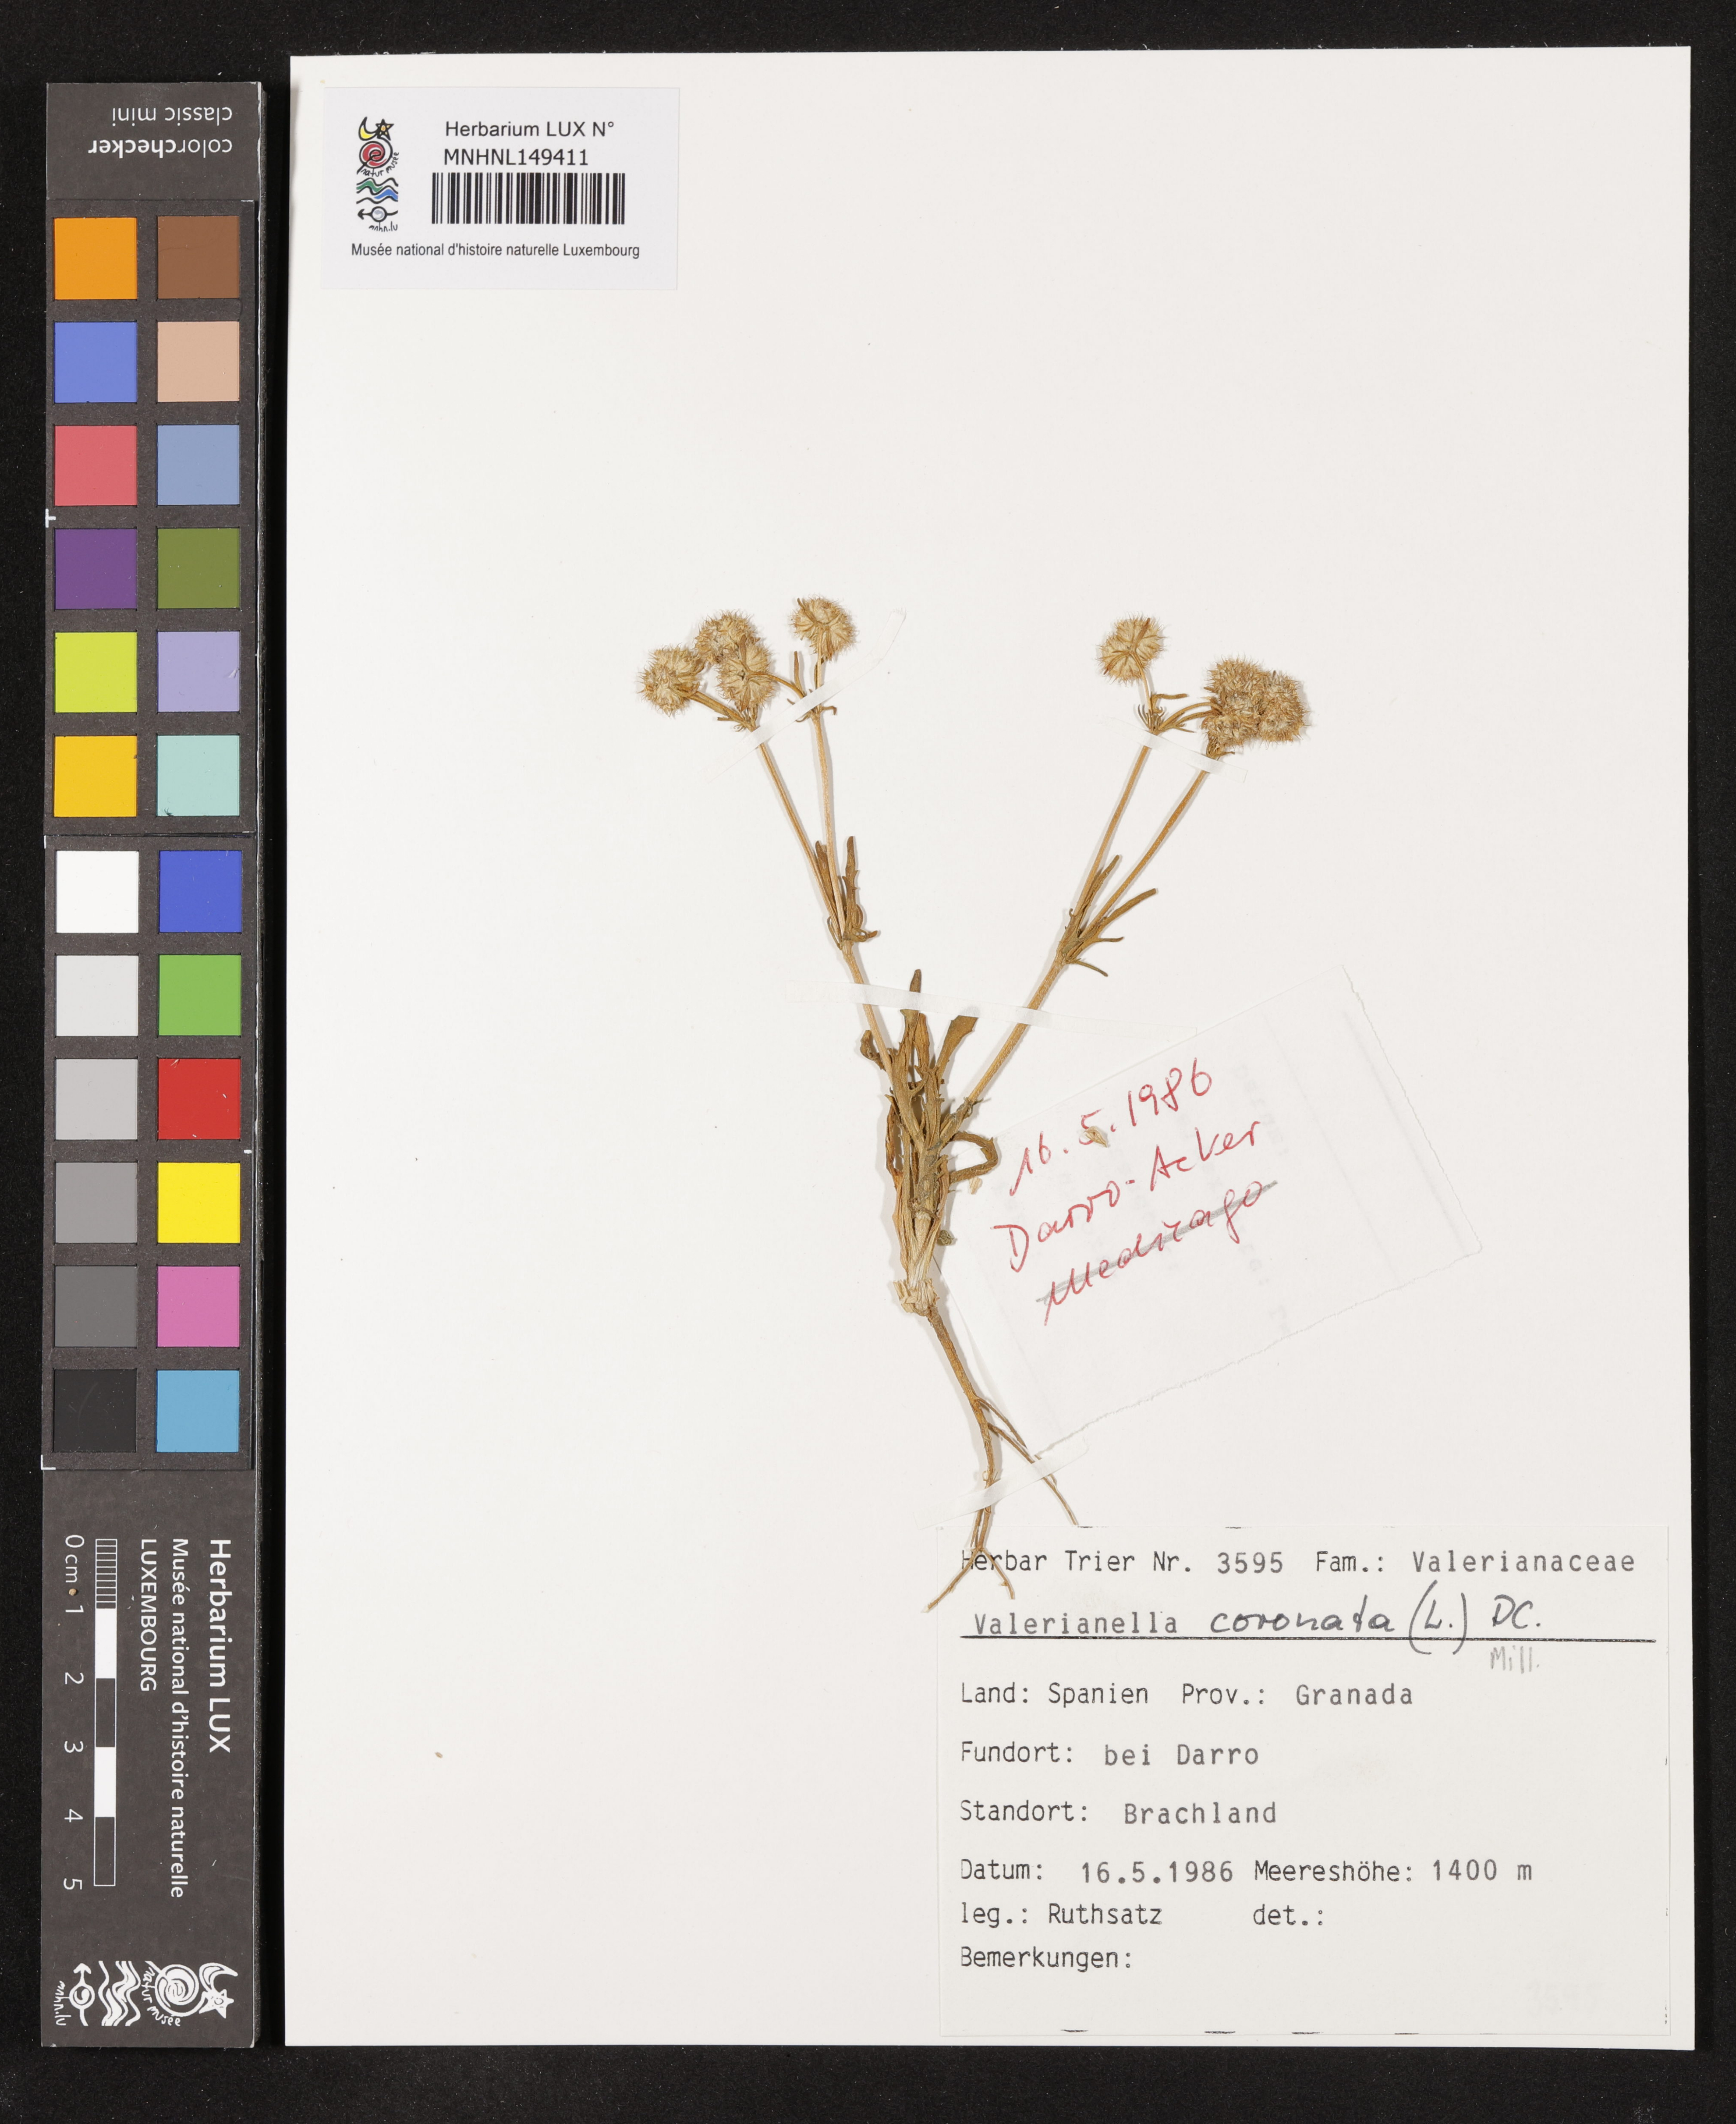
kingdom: Plantae
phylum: Tracheophyta
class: Magnoliopsida
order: Dipsacales
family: Caprifoliaceae
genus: Valerianella
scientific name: Valerianella coronata
